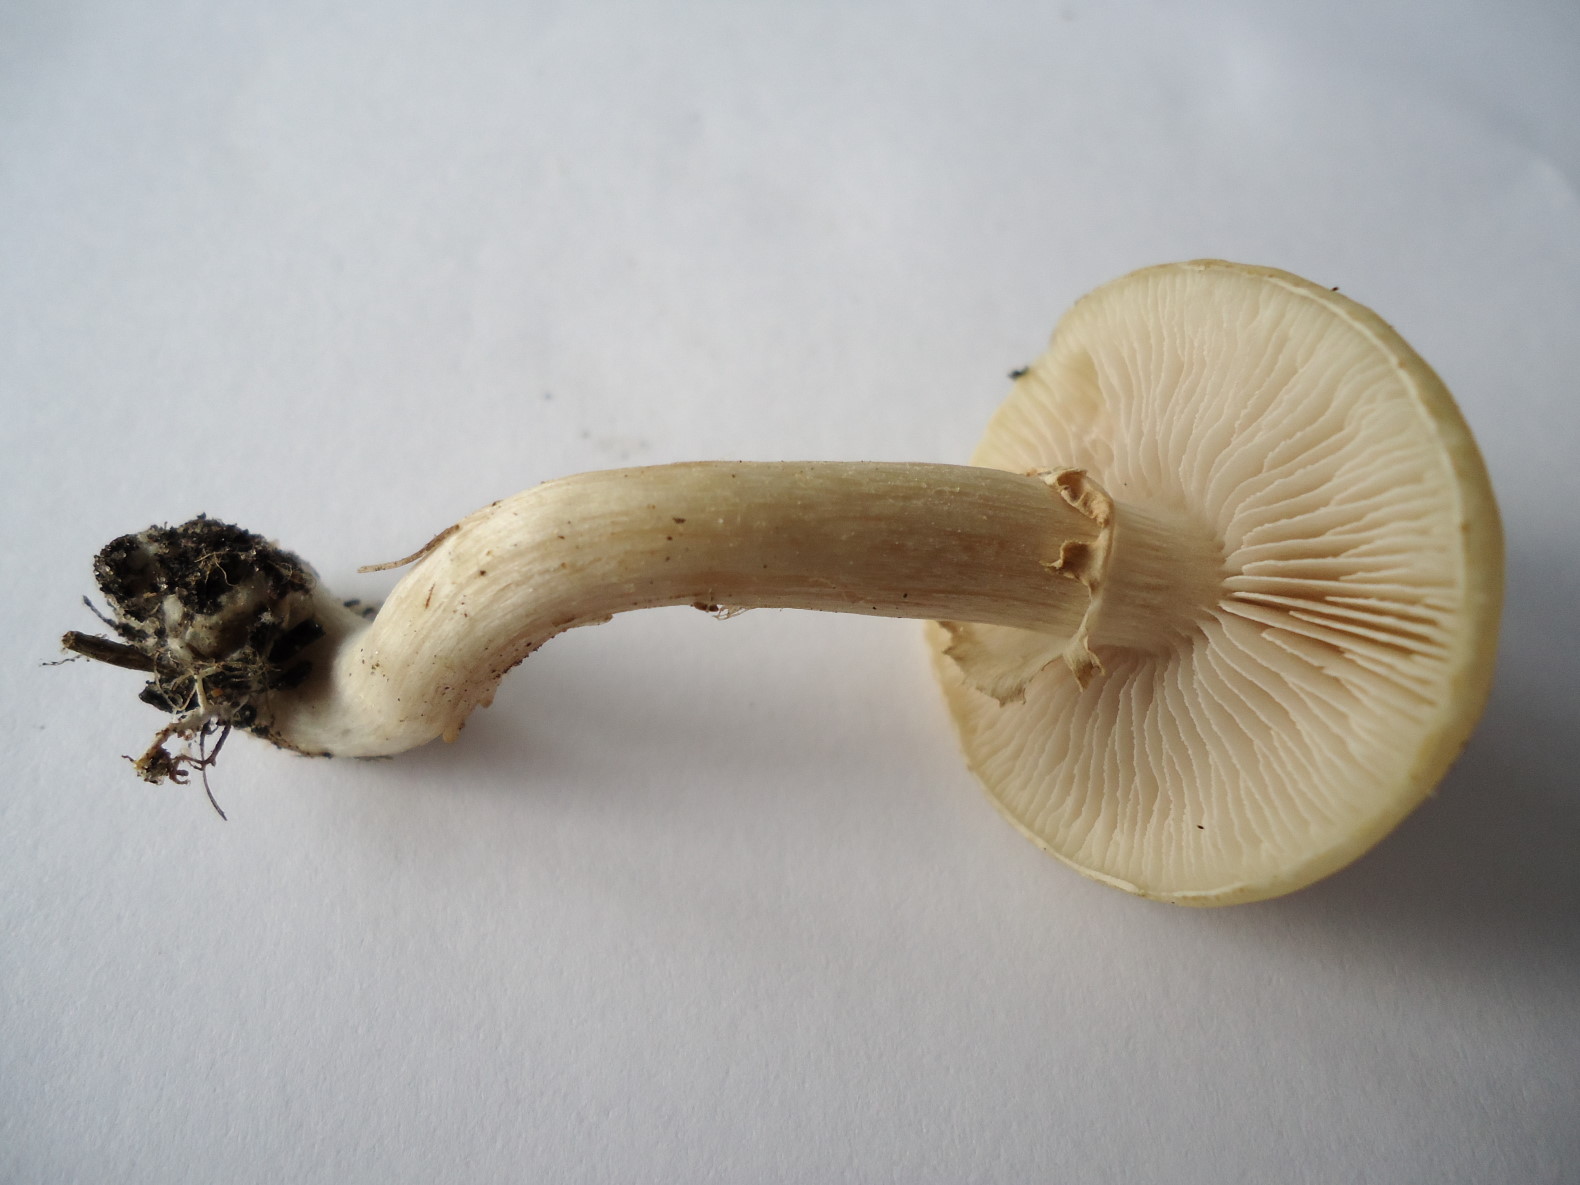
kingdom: Fungi
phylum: Basidiomycota
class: Agaricomycetes
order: Agaricales
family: Strophariaceae
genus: Agrocybe
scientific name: Agrocybe praecox
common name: tidlig agerhat
